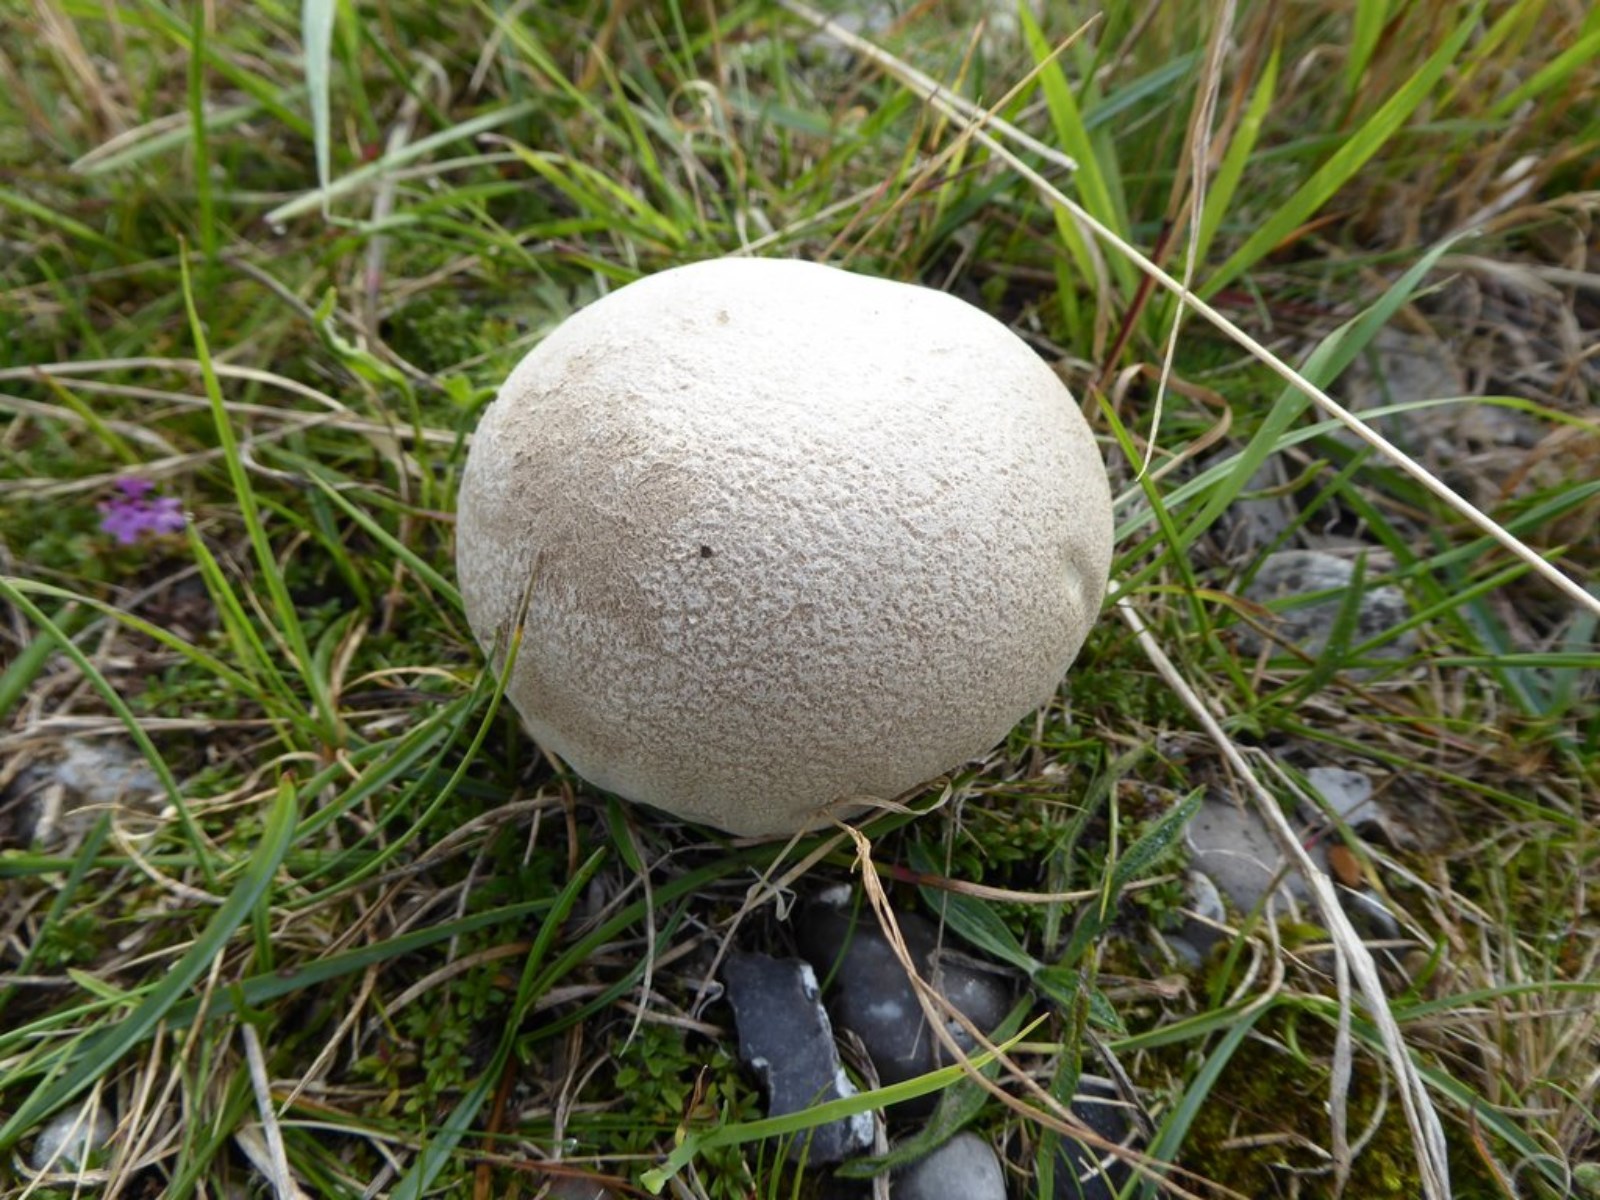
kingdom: Fungi
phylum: Basidiomycota
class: Agaricomycetes
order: Agaricales
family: Lycoperdaceae
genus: Bovistella
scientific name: Bovistella utriformis
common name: skællet støvbold
